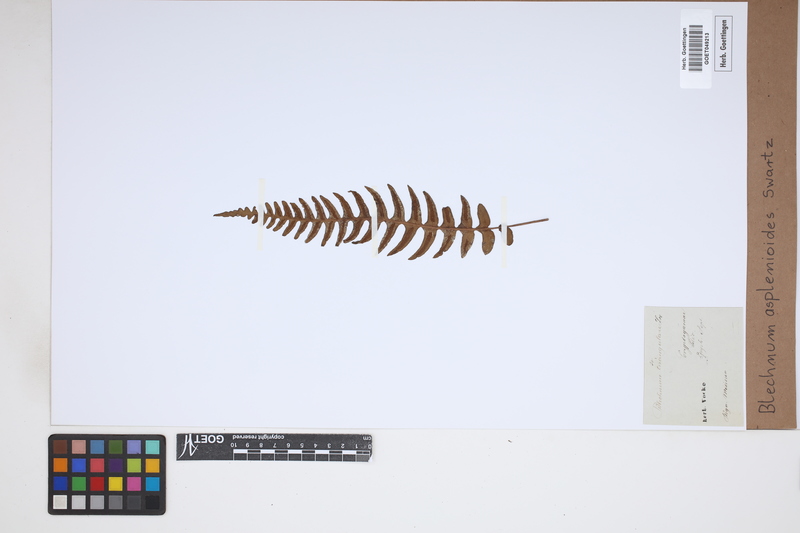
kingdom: Plantae
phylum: Tracheophyta
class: Polypodiopsida
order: Polypodiales
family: Blechnaceae
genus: Blechnum
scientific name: Blechnum asplenioides
